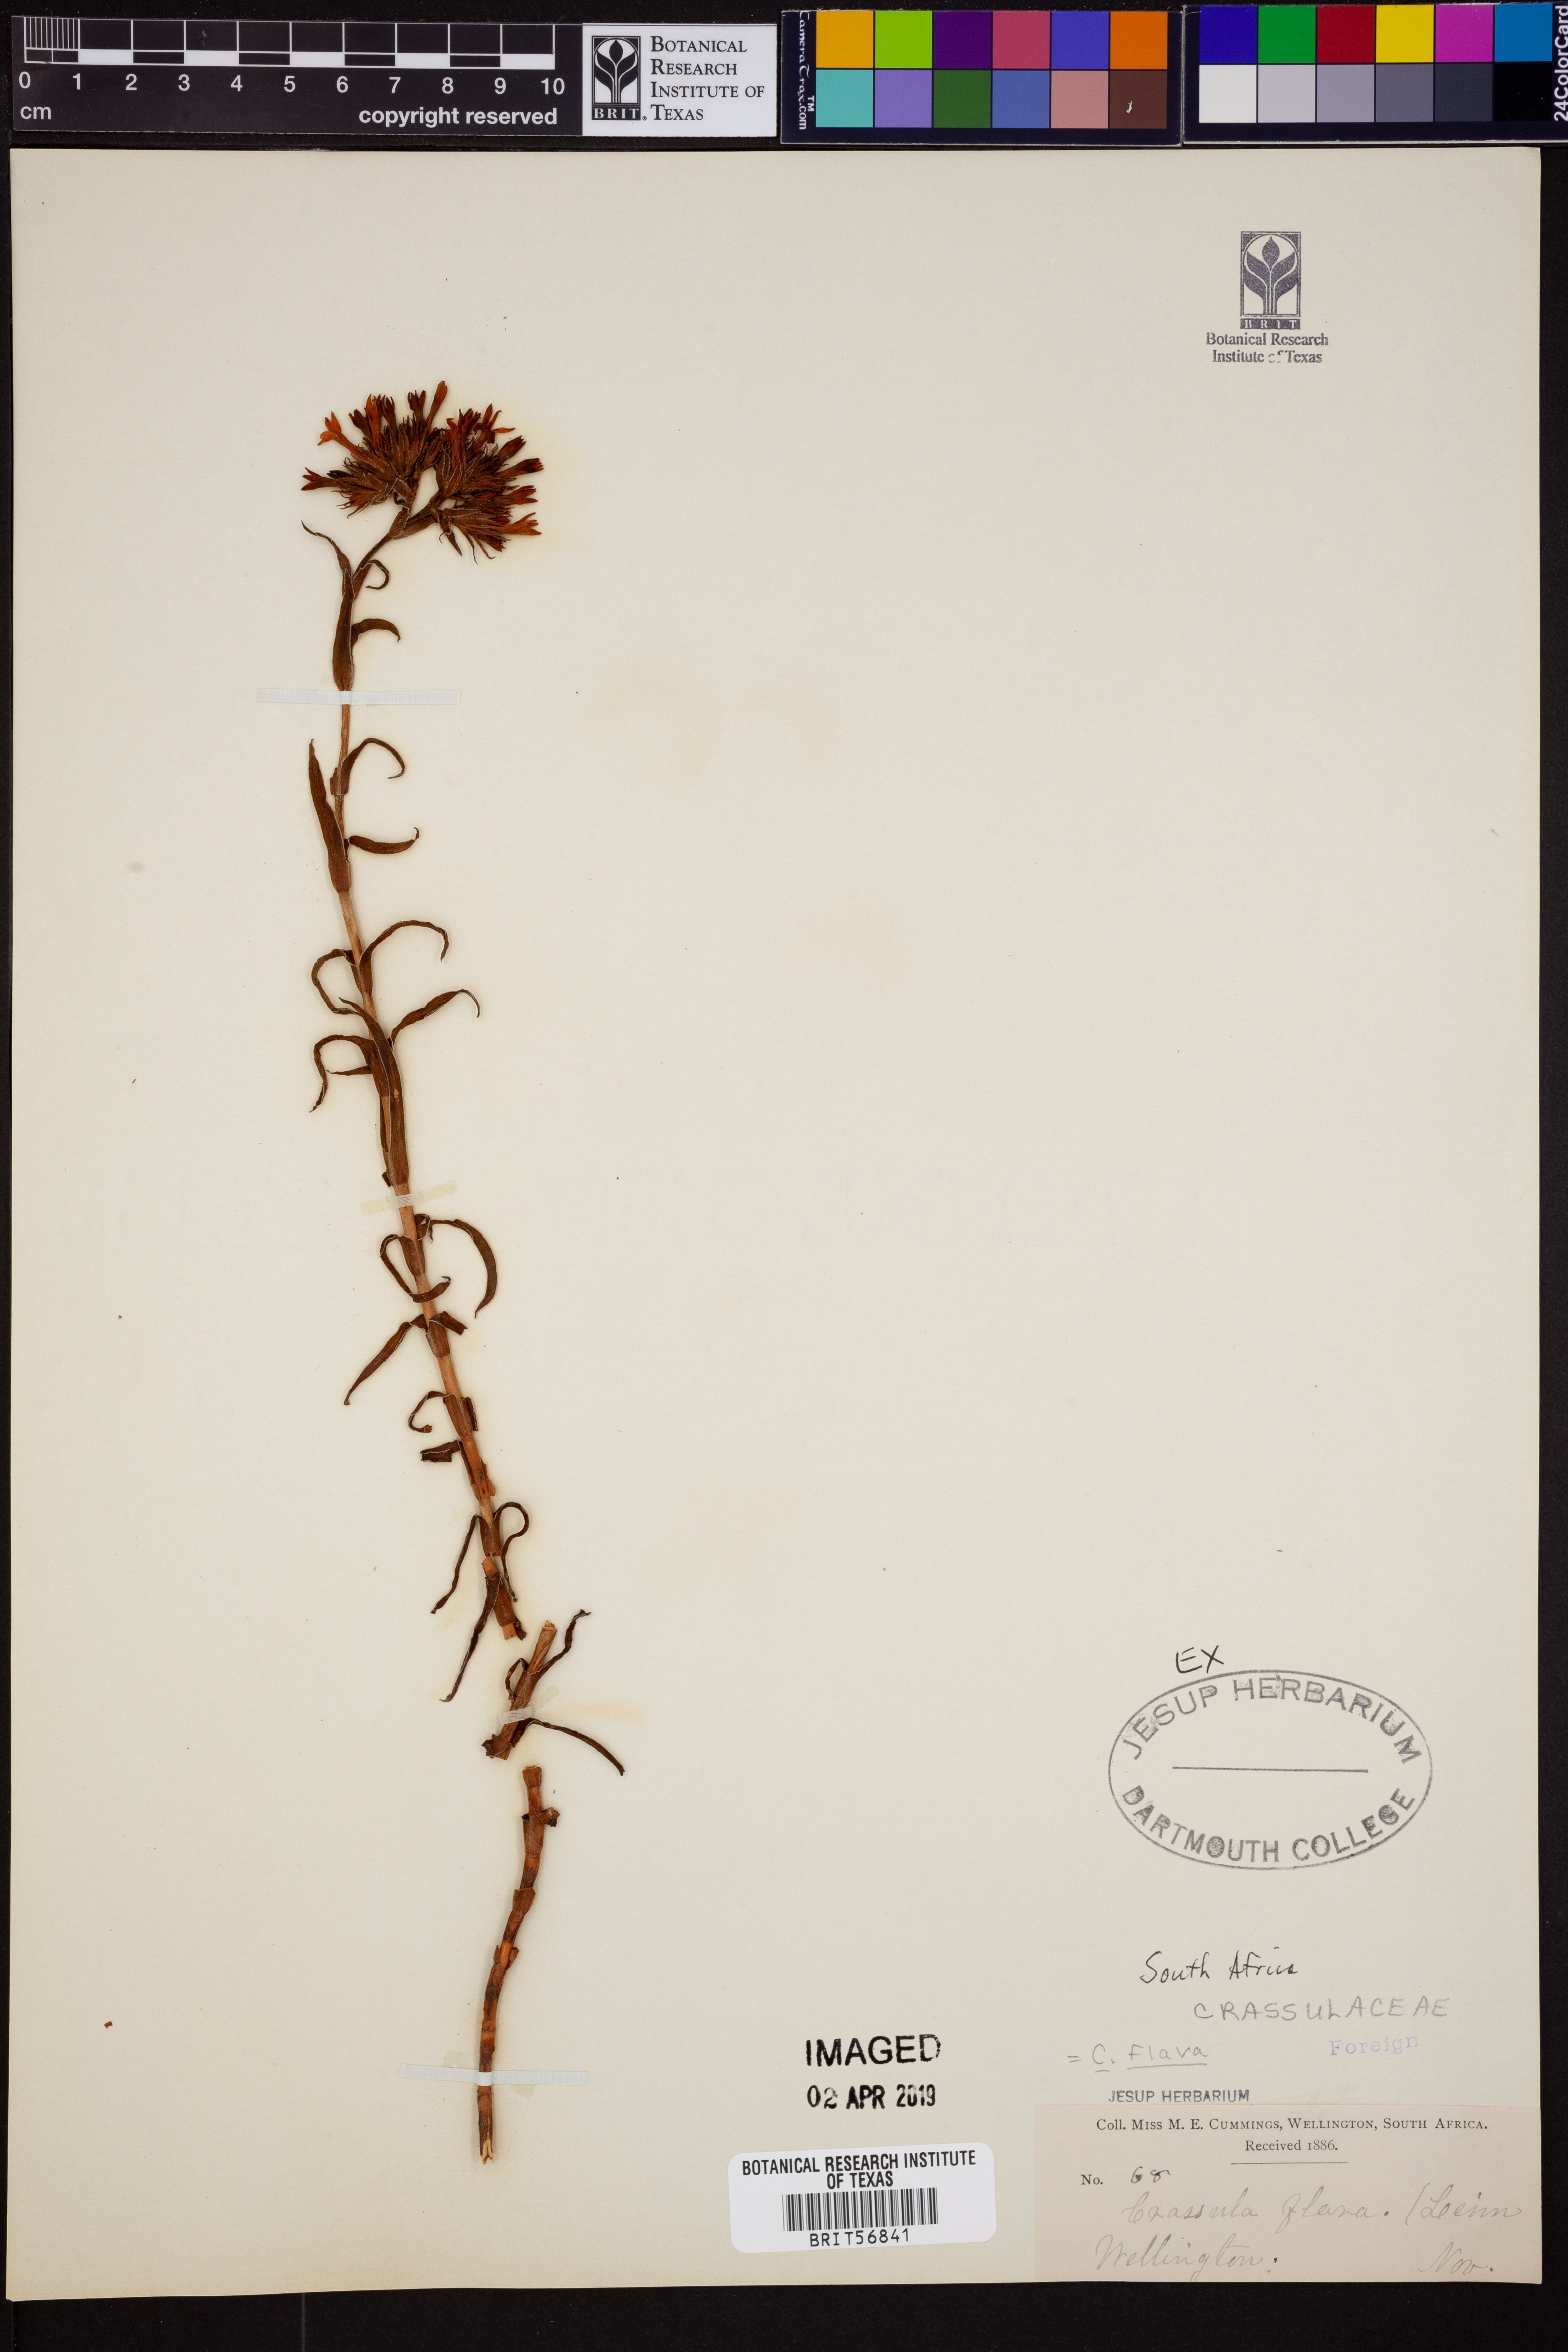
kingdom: Plantae
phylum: Tracheophyta
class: Magnoliopsida
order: Saxifragales
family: Crassulaceae
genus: Crassula
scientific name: Crassula flava
